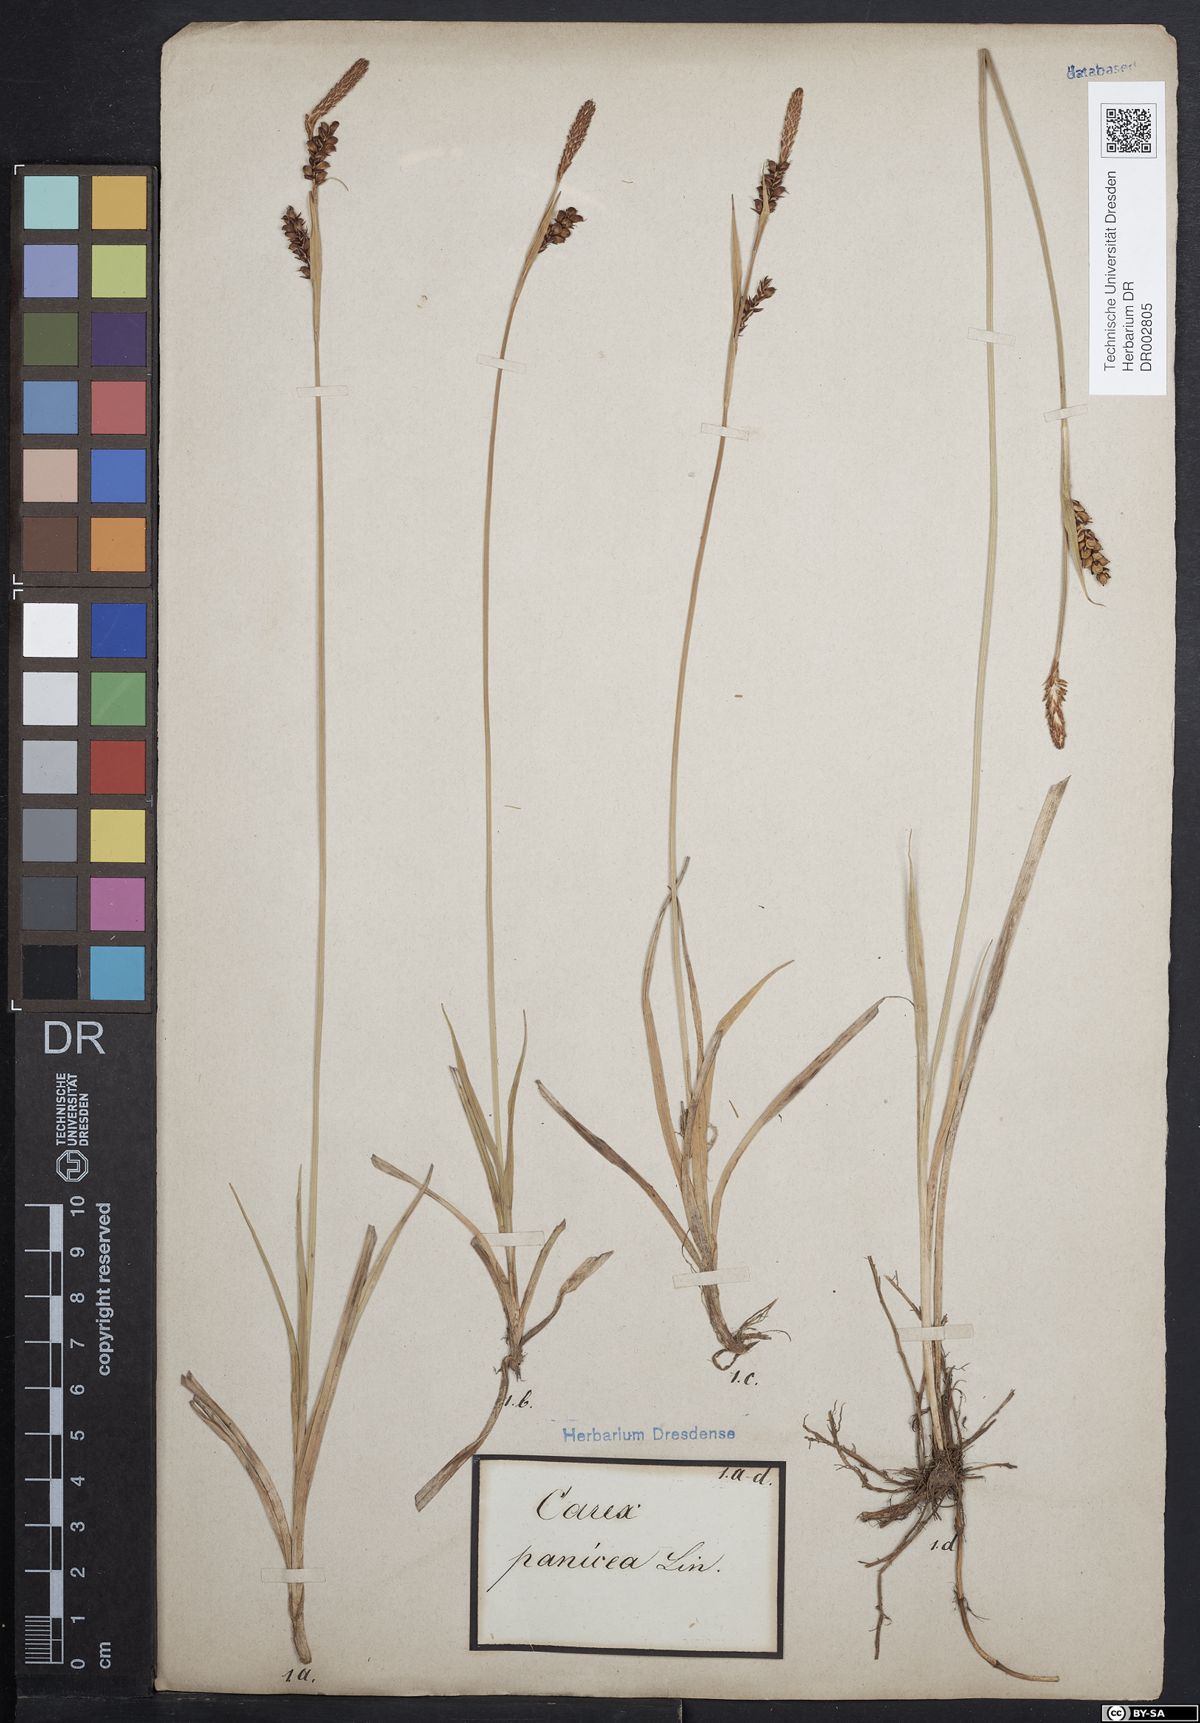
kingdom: Plantae
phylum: Tracheophyta
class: Liliopsida
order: Poales
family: Cyperaceae
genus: Carex
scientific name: Carex panicea
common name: Carnation sedge
